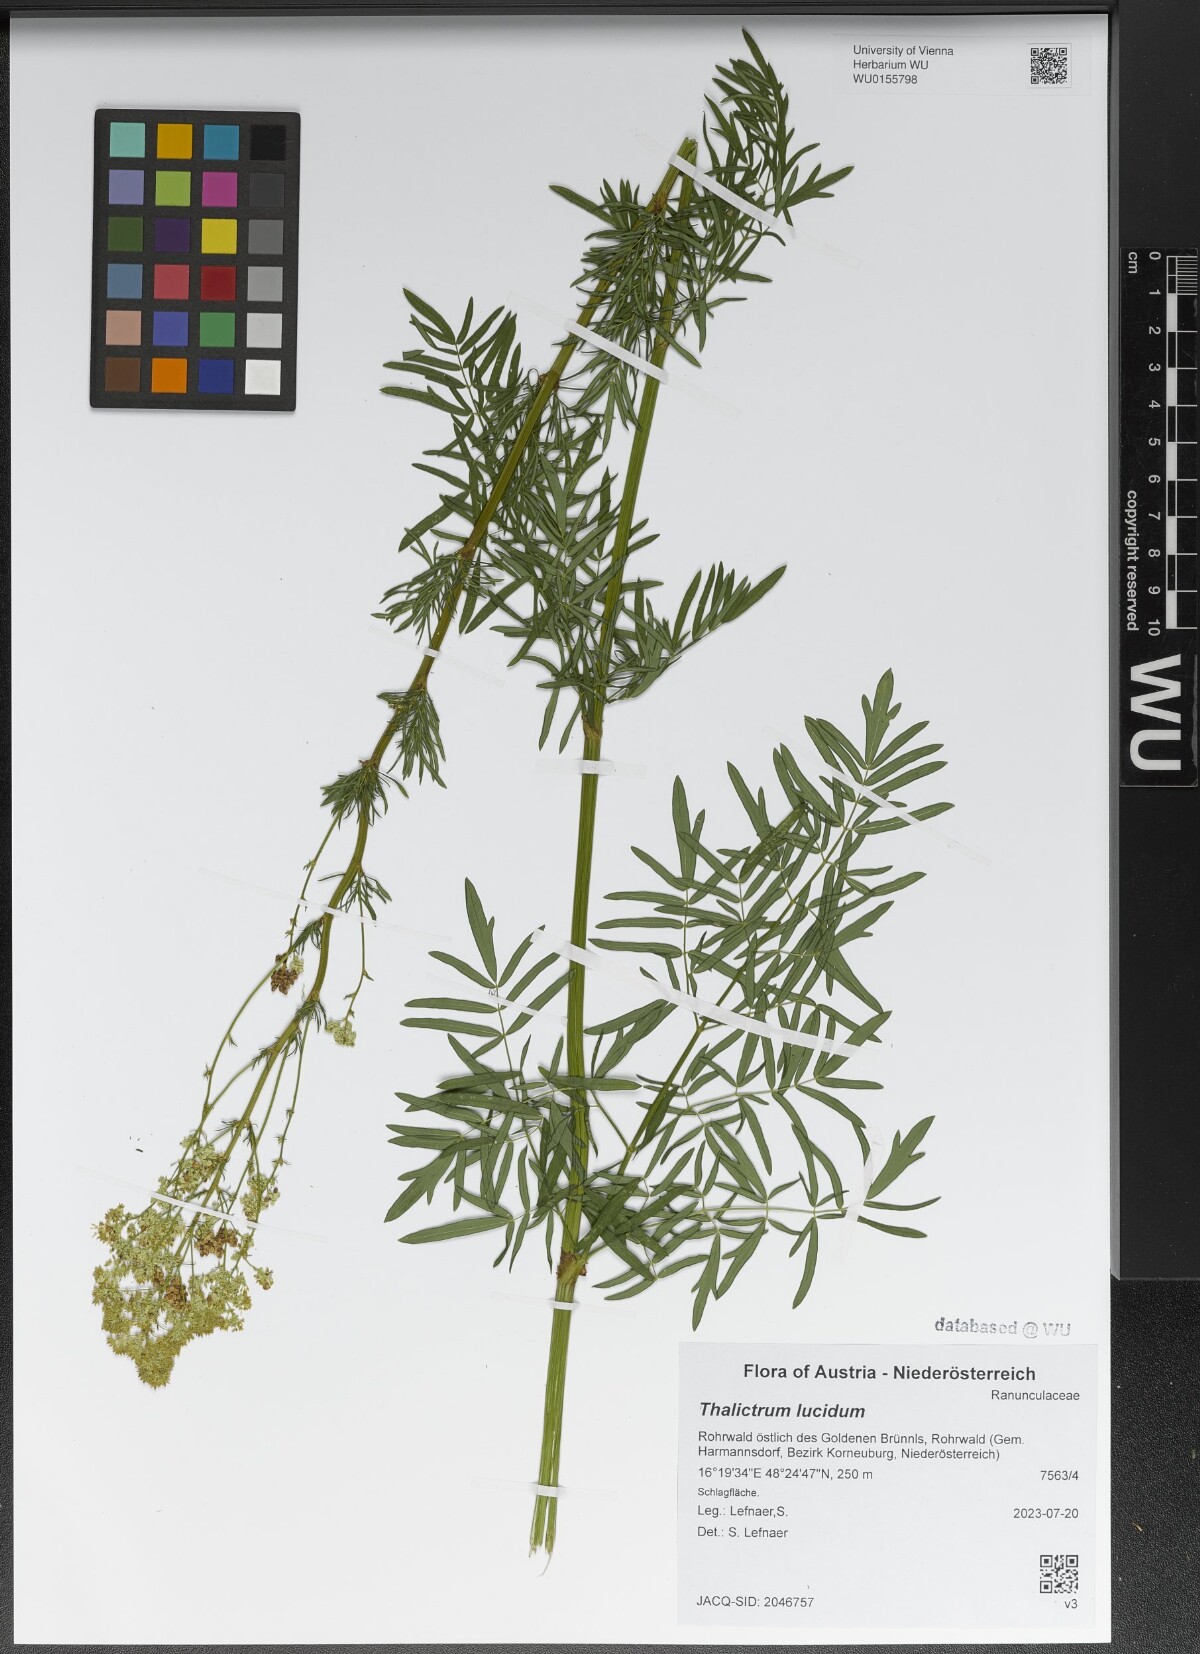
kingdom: Plantae
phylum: Tracheophyta
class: Magnoliopsida
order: Ranunculales
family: Ranunculaceae
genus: Thalictrum
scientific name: Thalictrum lucidum
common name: Shining meadow-rue
